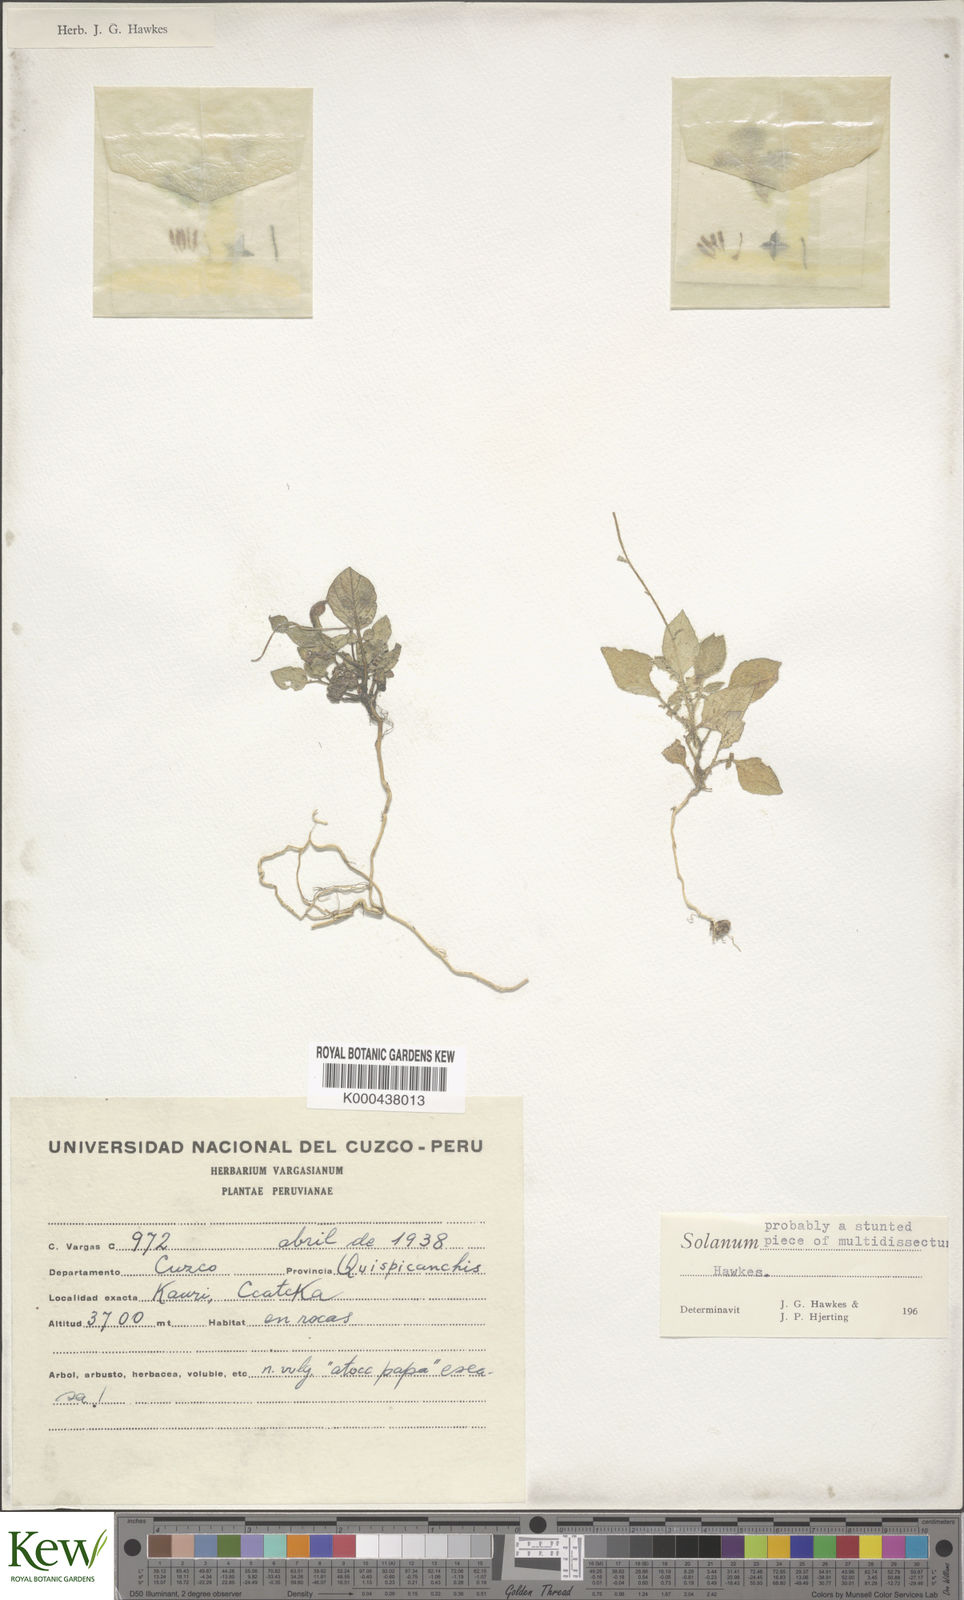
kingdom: Plantae
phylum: Tracheophyta
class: Magnoliopsida
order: Solanales
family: Solanaceae
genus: Solanum
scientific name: Solanum candolleanum
